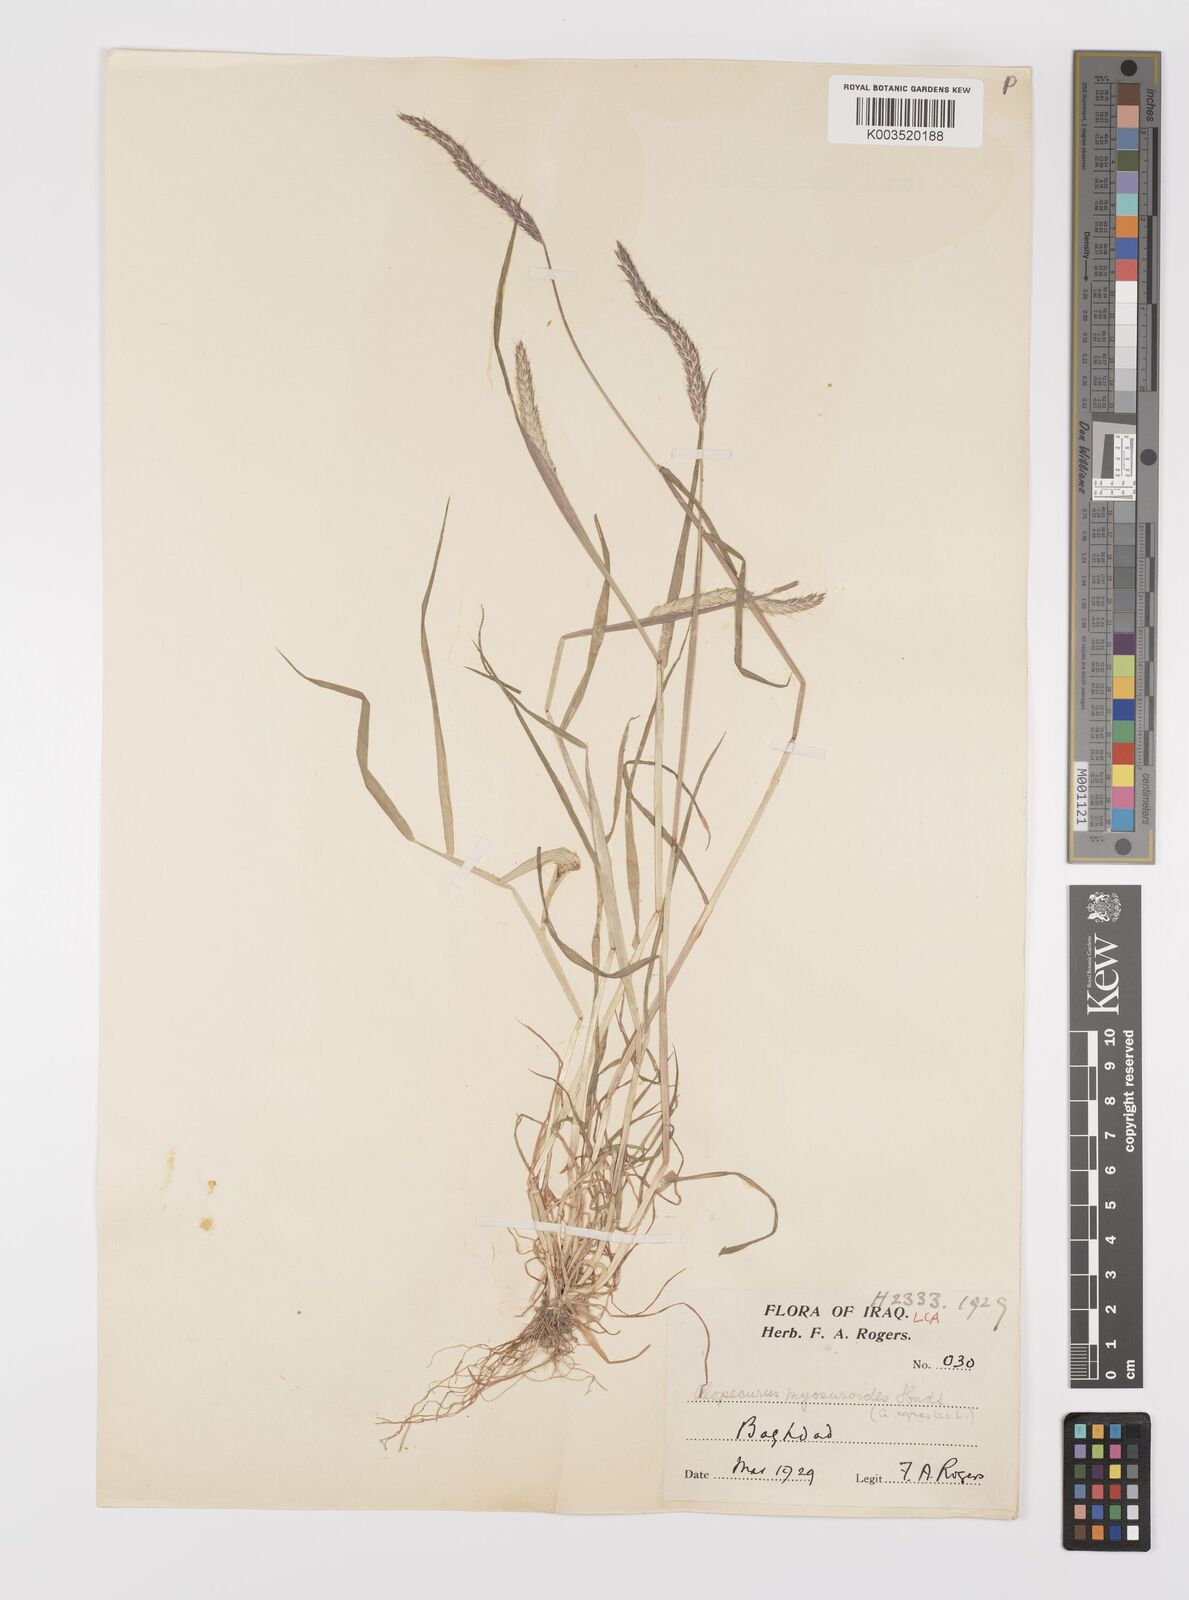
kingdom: Plantae
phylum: Tracheophyta
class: Liliopsida
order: Poales
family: Poaceae
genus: Alopecurus
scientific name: Alopecurus myosuroides
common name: Black-grass
